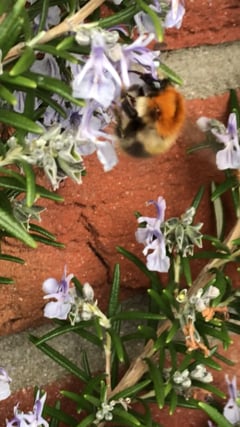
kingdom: Animalia
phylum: Arthropoda
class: Insecta
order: Hymenoptera
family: Apidae
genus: Bombus
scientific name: Bombus pascuorum
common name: Common carder bee
